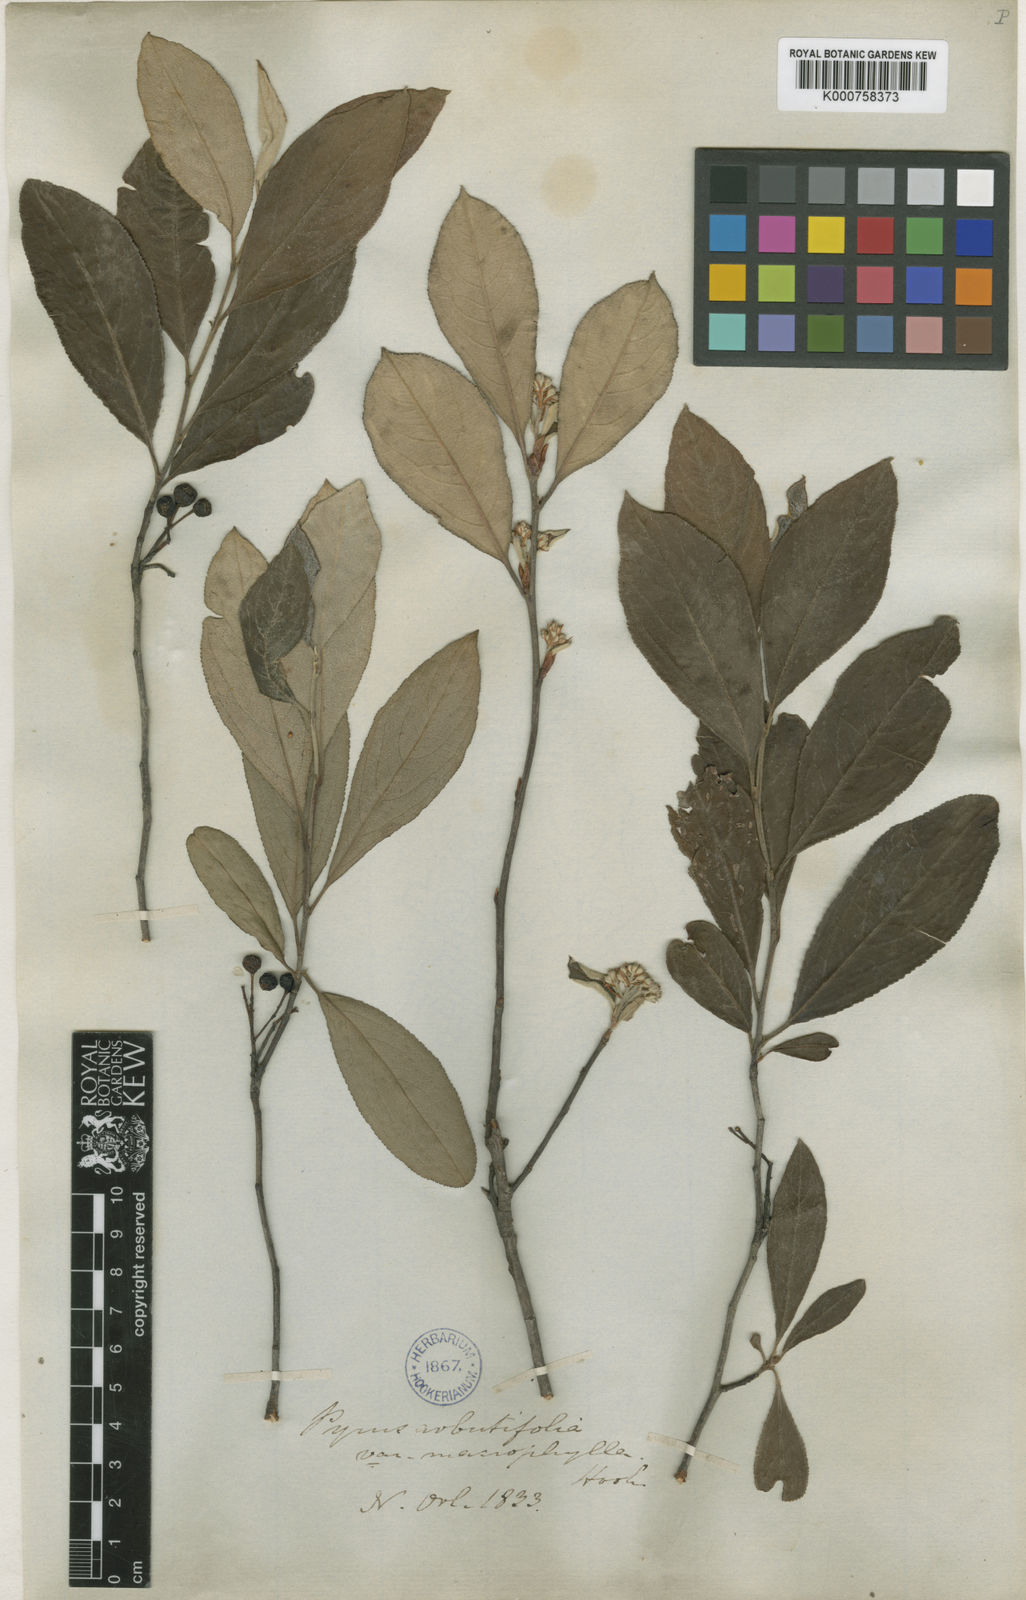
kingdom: Plantae
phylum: Tracheophyta
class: Magnoliopsida
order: Rosales
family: Rosaceae
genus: Heteromeles
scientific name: Heteromeles arbutifolia
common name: California-holly
